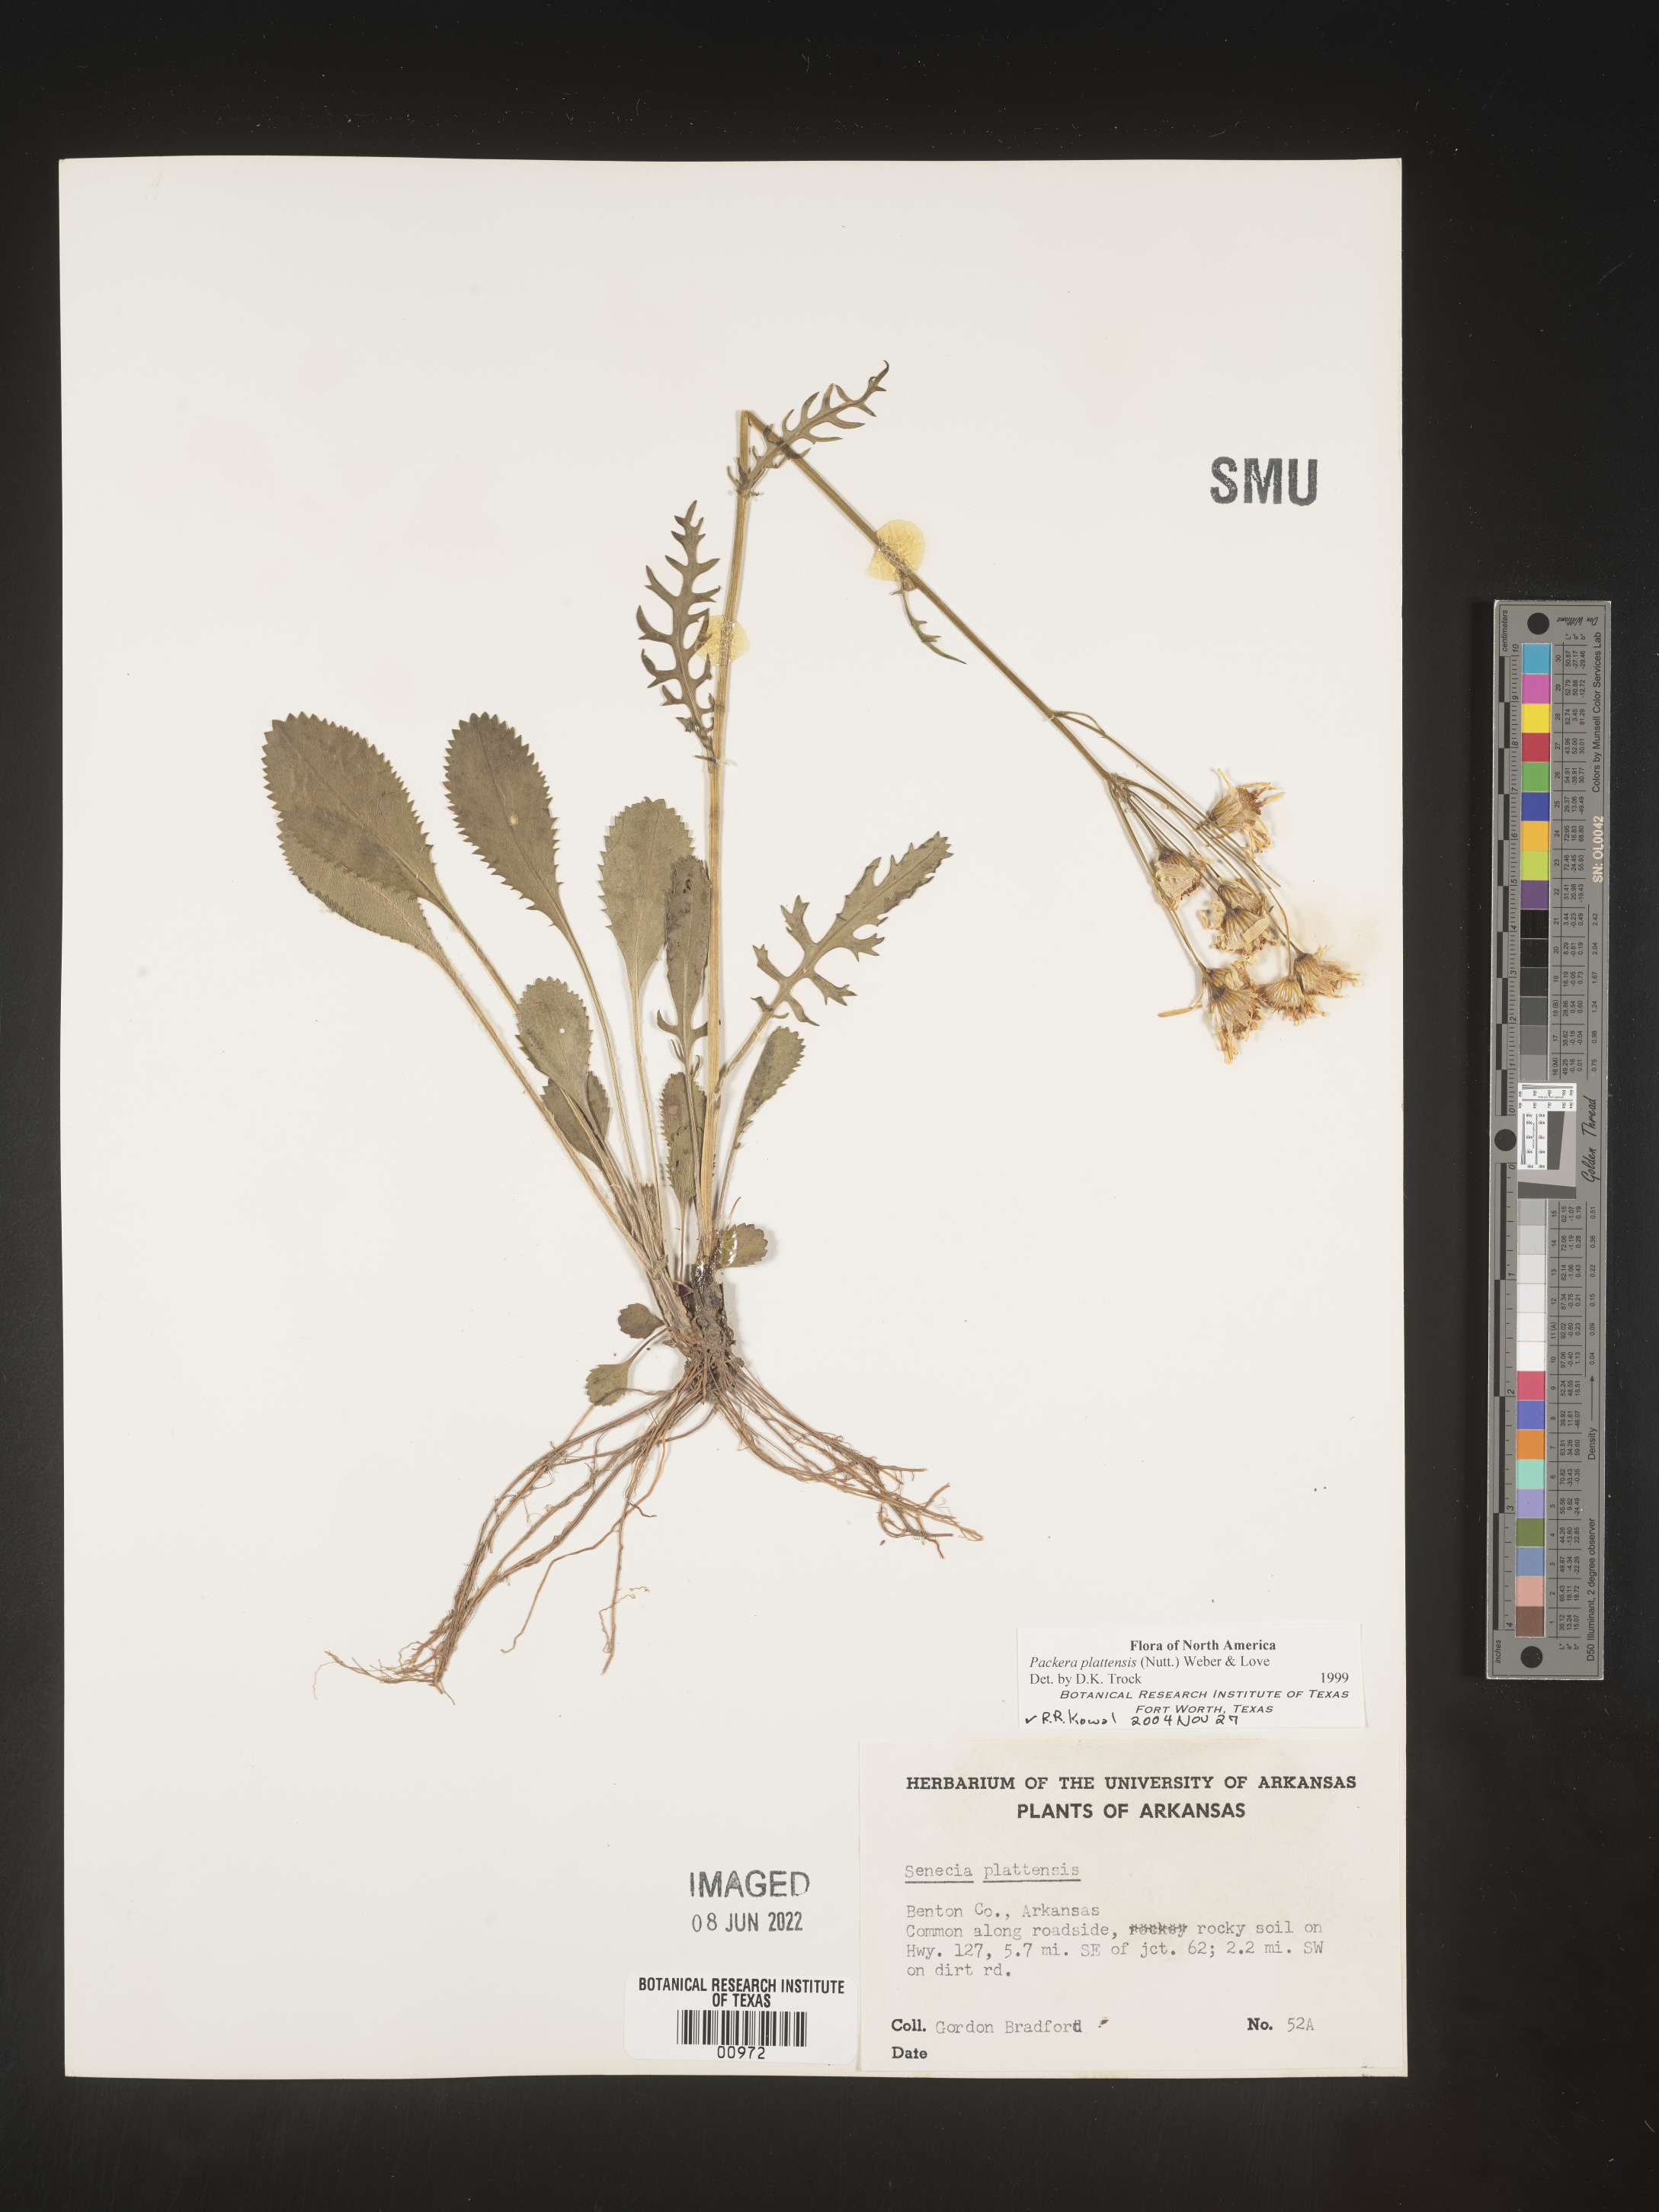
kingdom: Plantae
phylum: Tracheophyta
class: Magnoliopsida
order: Asterales
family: Asteraceae
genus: Packera
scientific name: Packera plattensis
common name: Prairie groundsel
